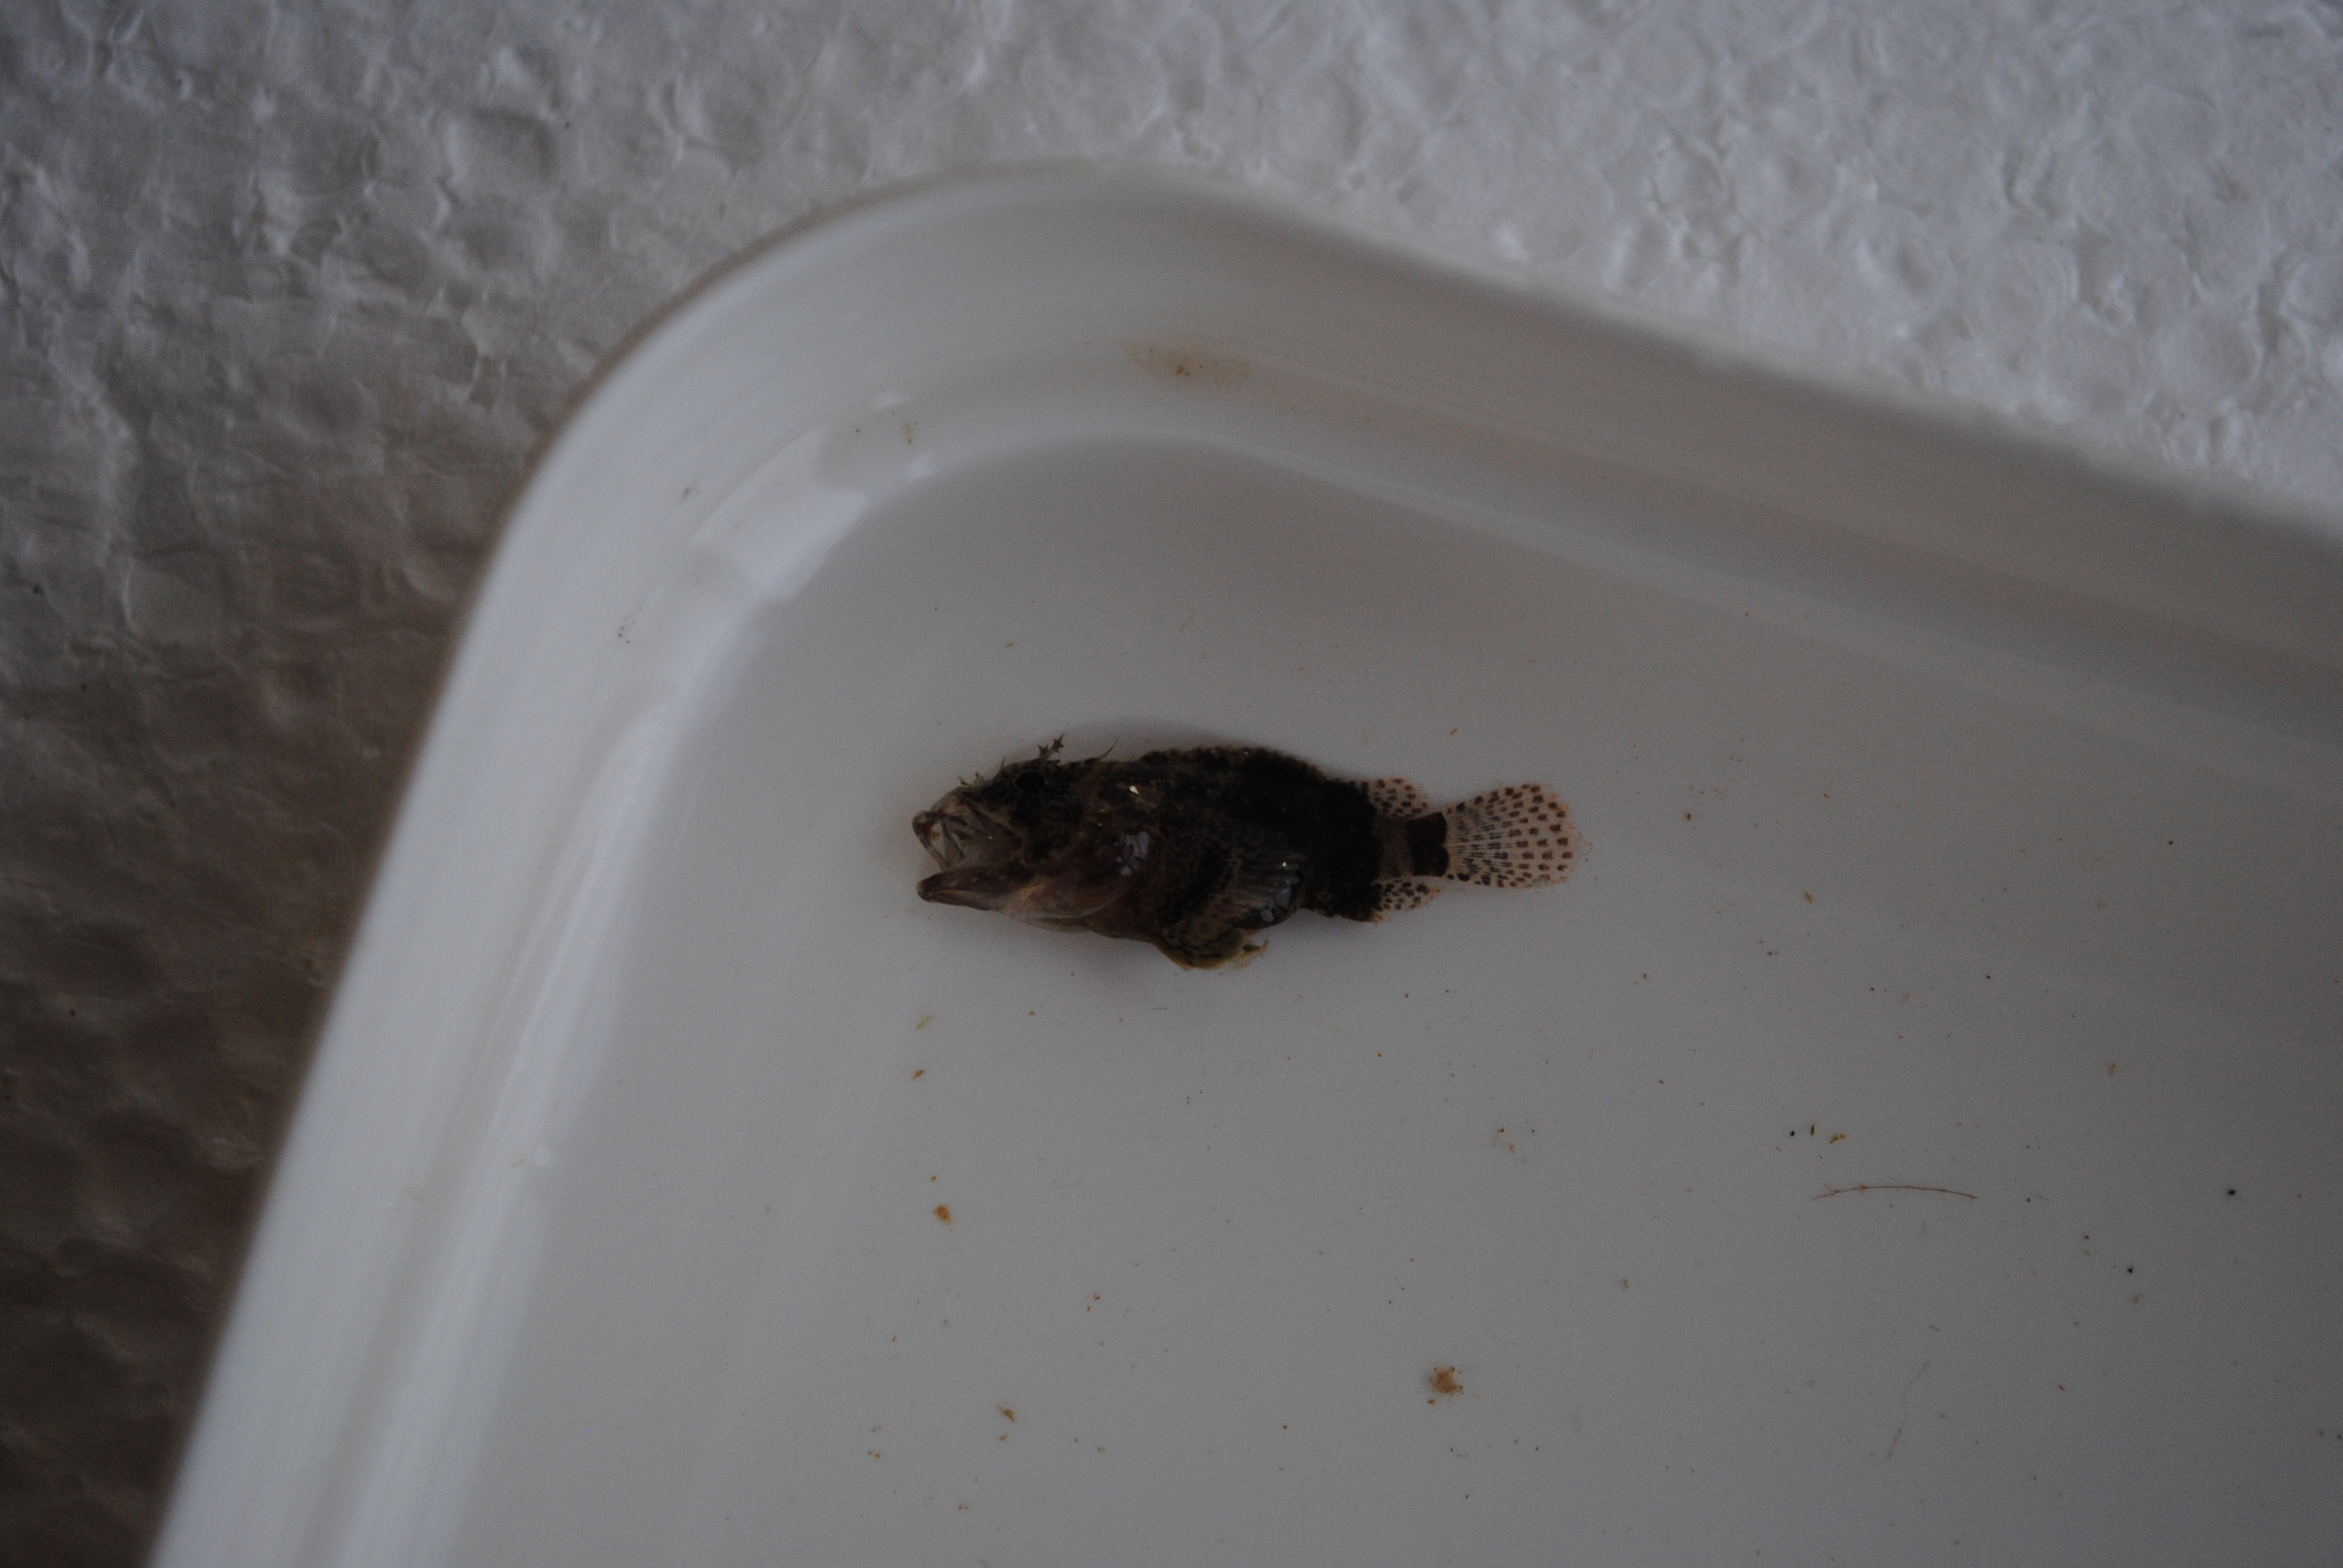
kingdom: Animalia
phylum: Chordata
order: Scorpaeniformes
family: Scorpaenidae
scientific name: Scorpaenidae
